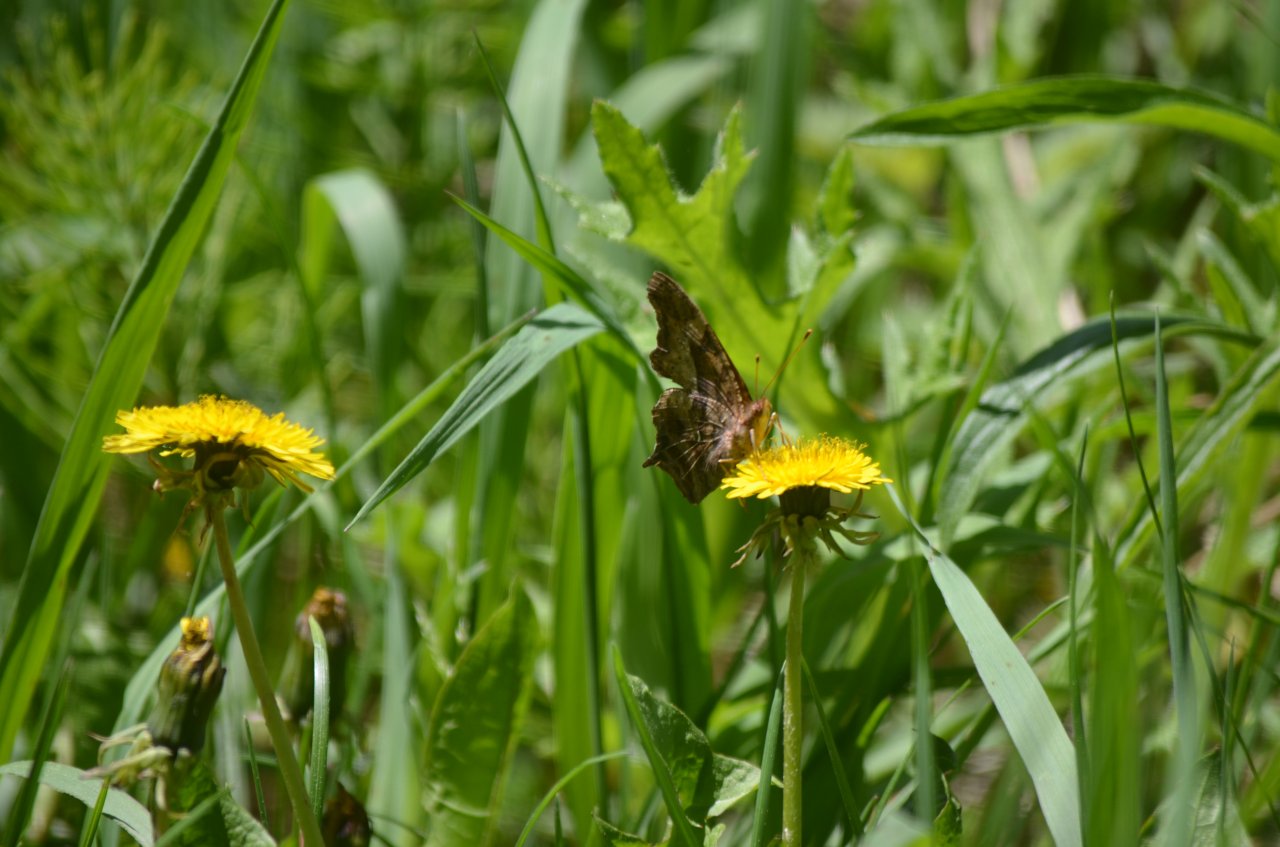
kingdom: Animalia
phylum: Arthropoda
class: Insecta
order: Lepidoptera
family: Nymphalidae
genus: Polygonia
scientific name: Polygonia interrogationis
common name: Question Mark
